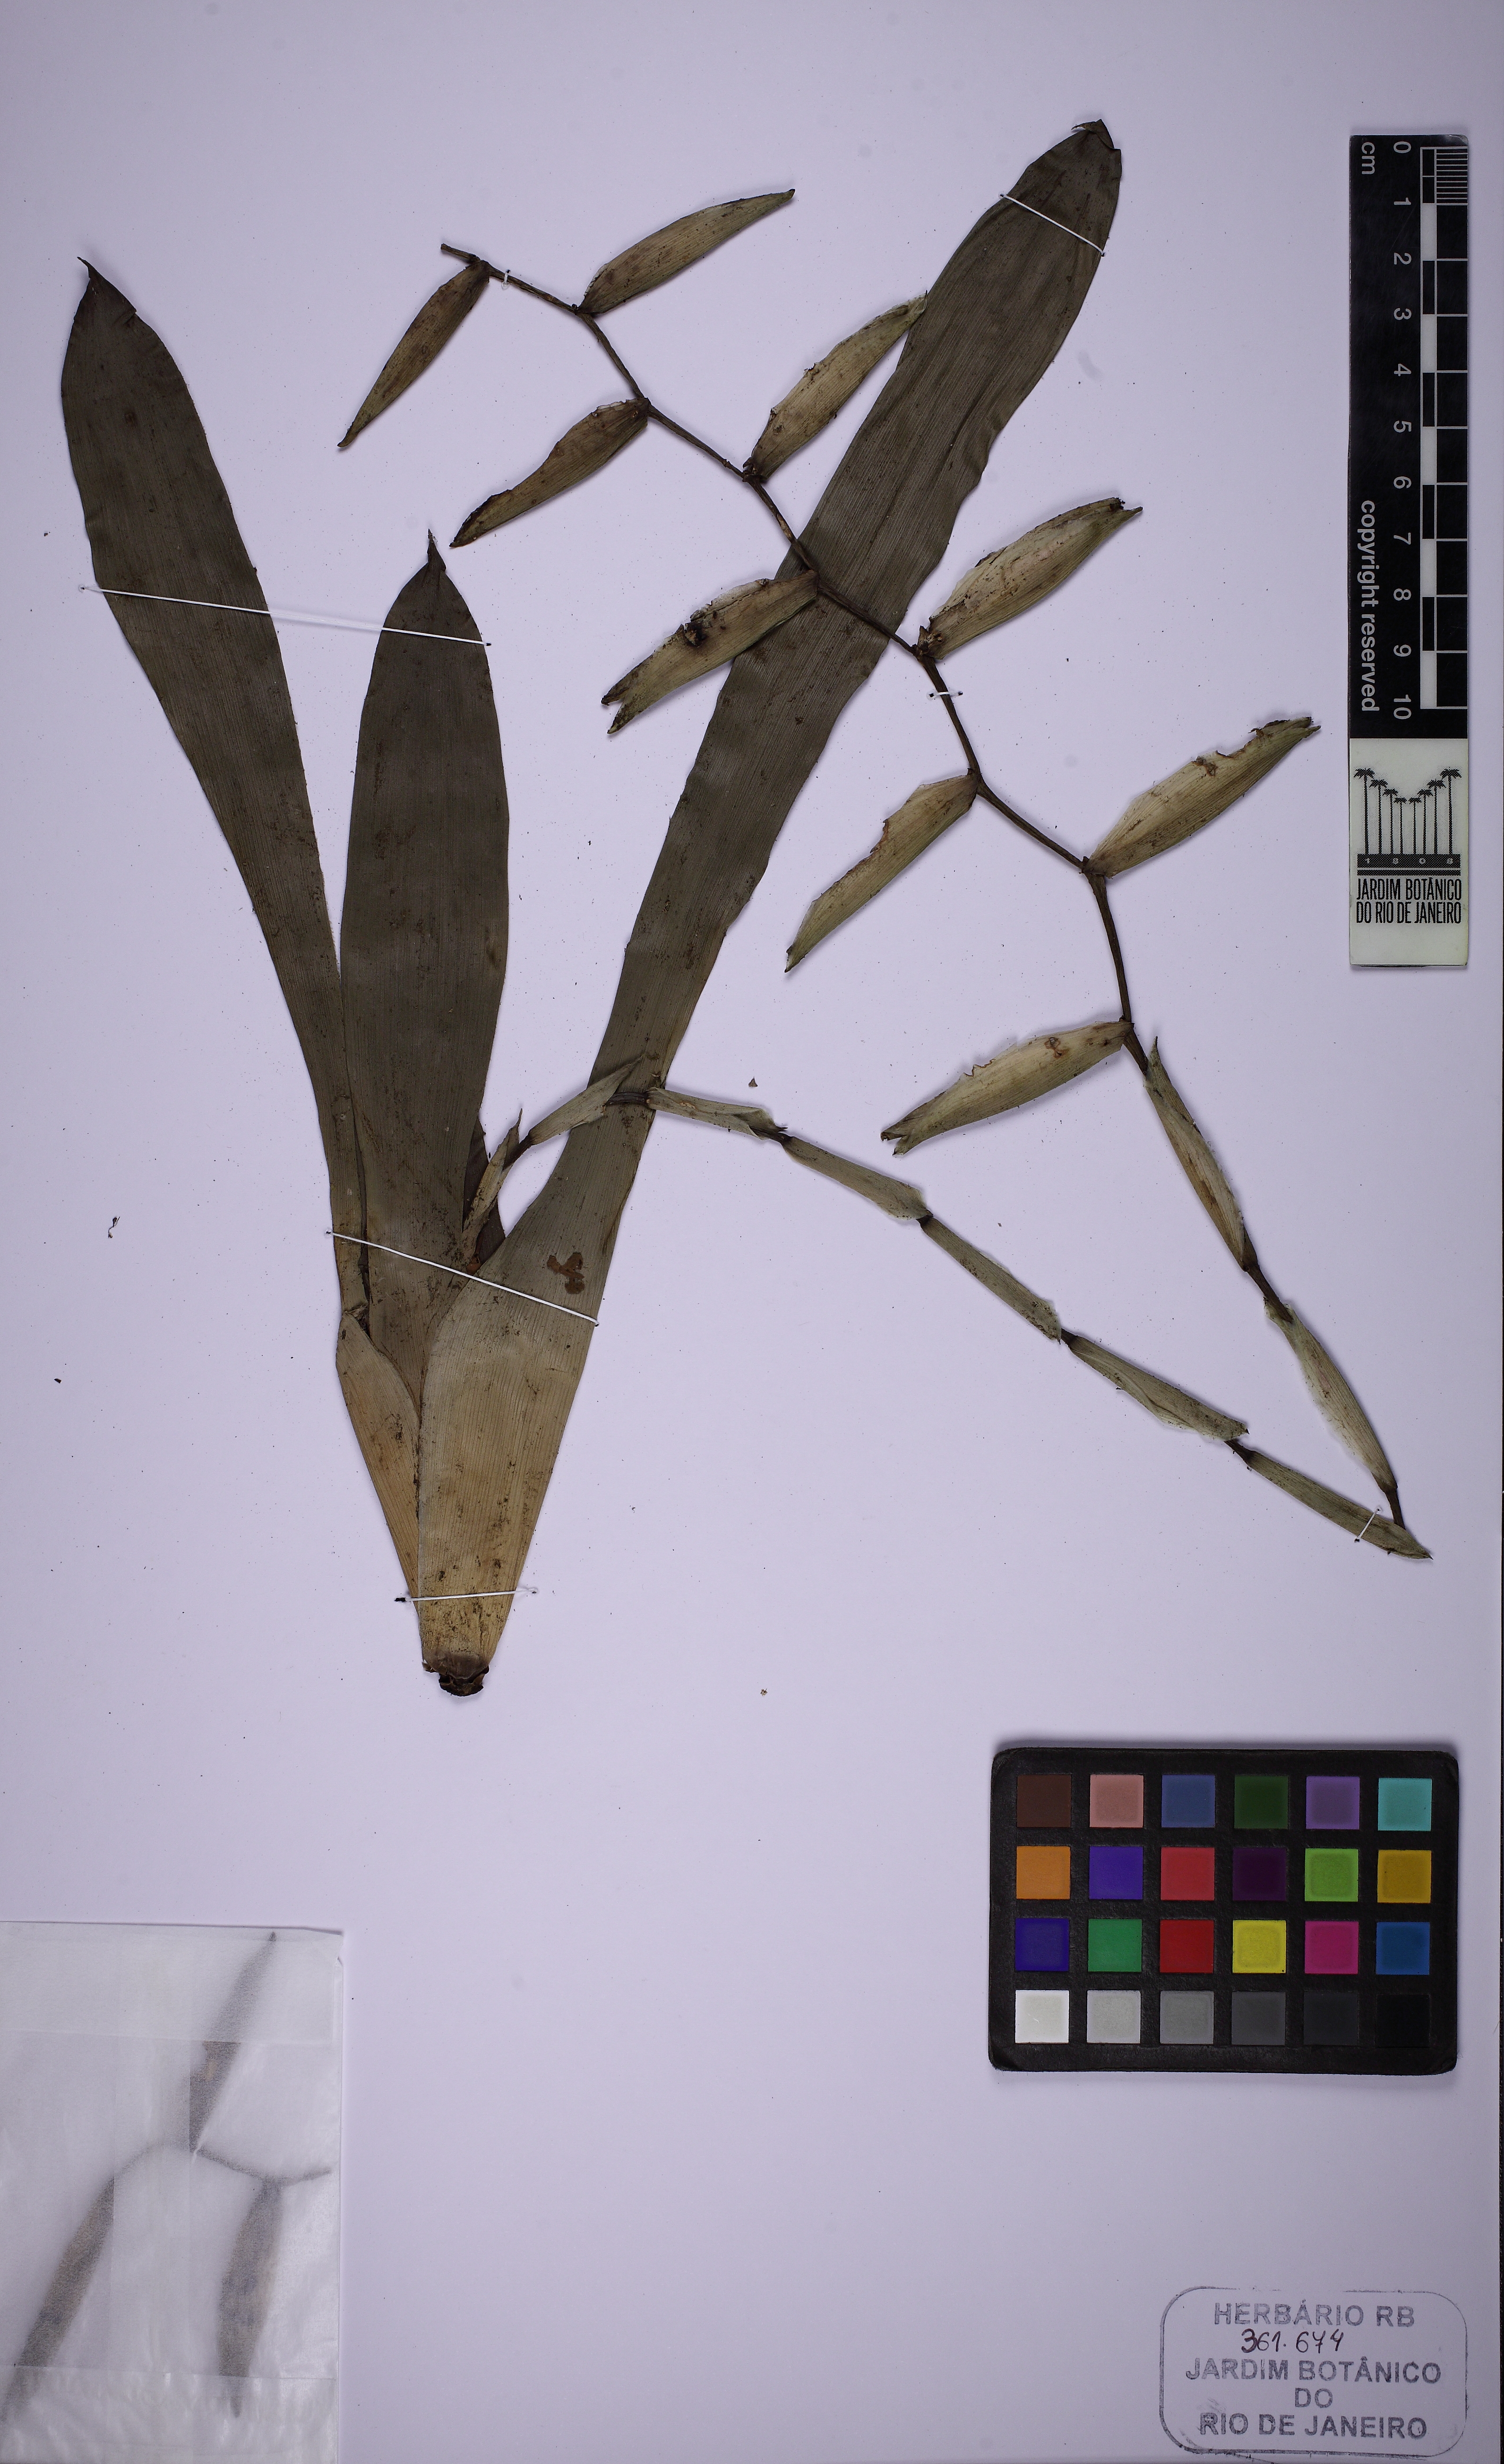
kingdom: Plantae
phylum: Tracheophyta
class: Liliopsida
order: Poales
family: Bromeliaceae
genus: Vriesea
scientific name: Vriesea simplex
